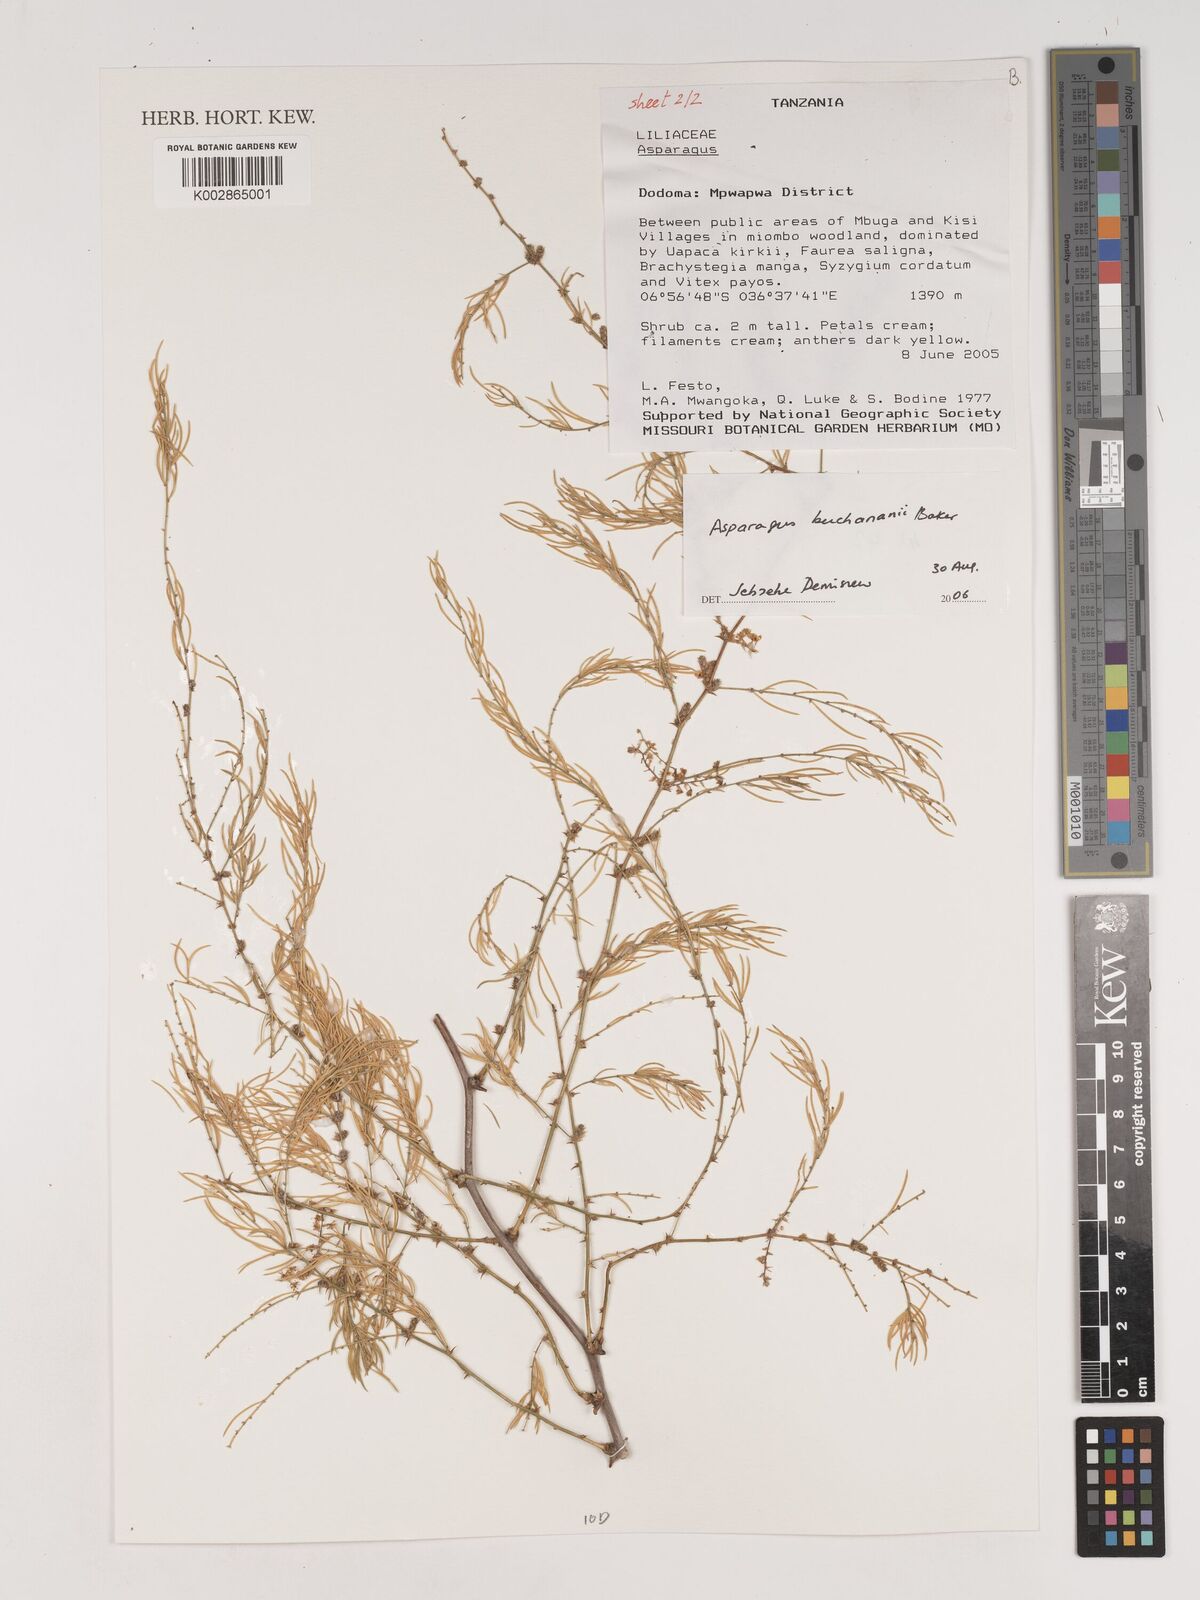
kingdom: Plantae
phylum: Tracheophyta
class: Liliopsida
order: Asparagales
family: Asparagaceae
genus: Asparagus
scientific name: Asparagus buchananii
